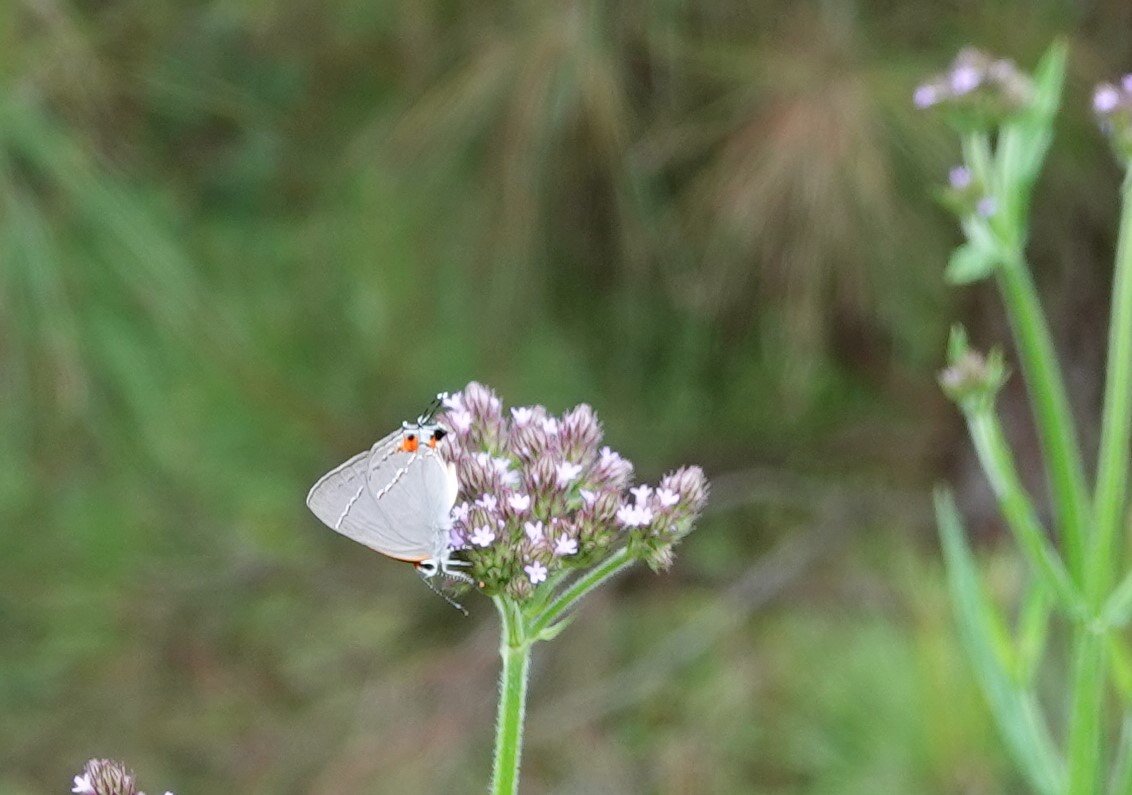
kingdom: Animalia
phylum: Arthropoda
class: Insecta
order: Lepidoptera
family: Lycaenidae
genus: Strymon
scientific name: Strymon melinus
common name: Gray Hairstreak
